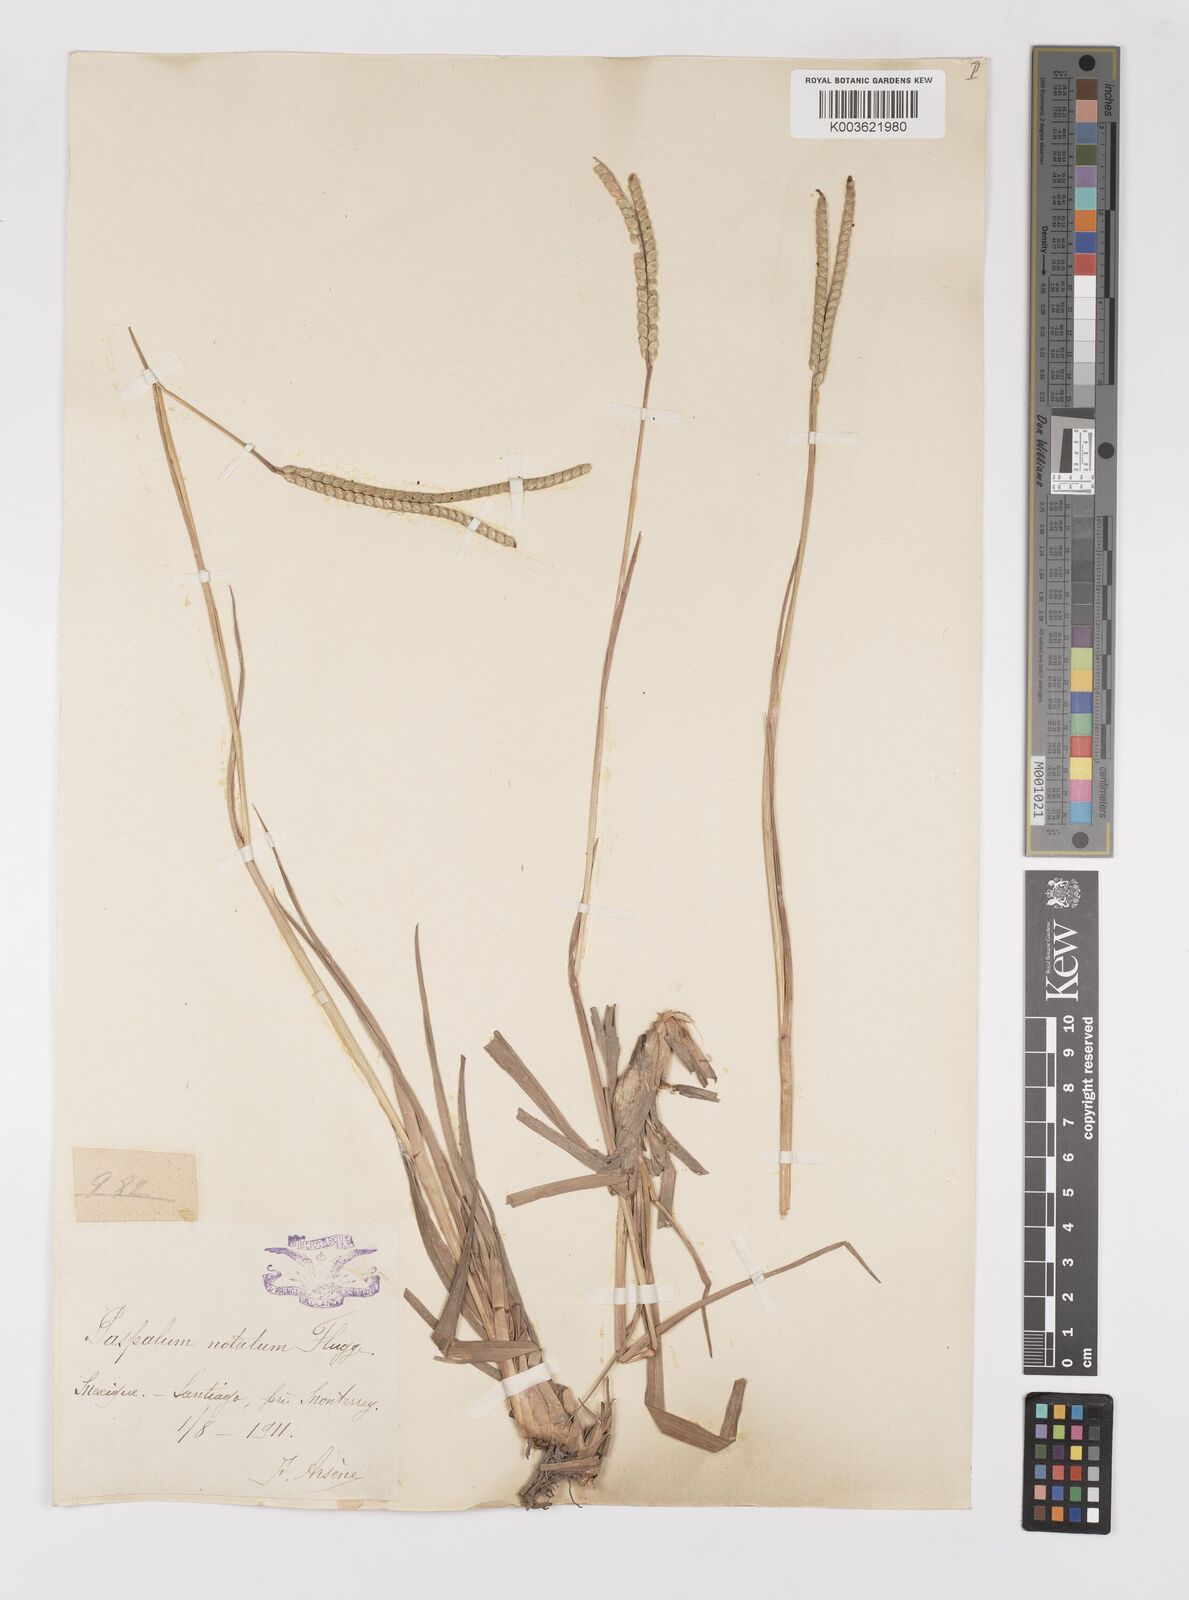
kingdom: Plantae
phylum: Tracheophyta
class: Liliopsida
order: Poales
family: Poaceae
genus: Paspalum
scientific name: Paspalum notatum
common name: Bahiagrass
